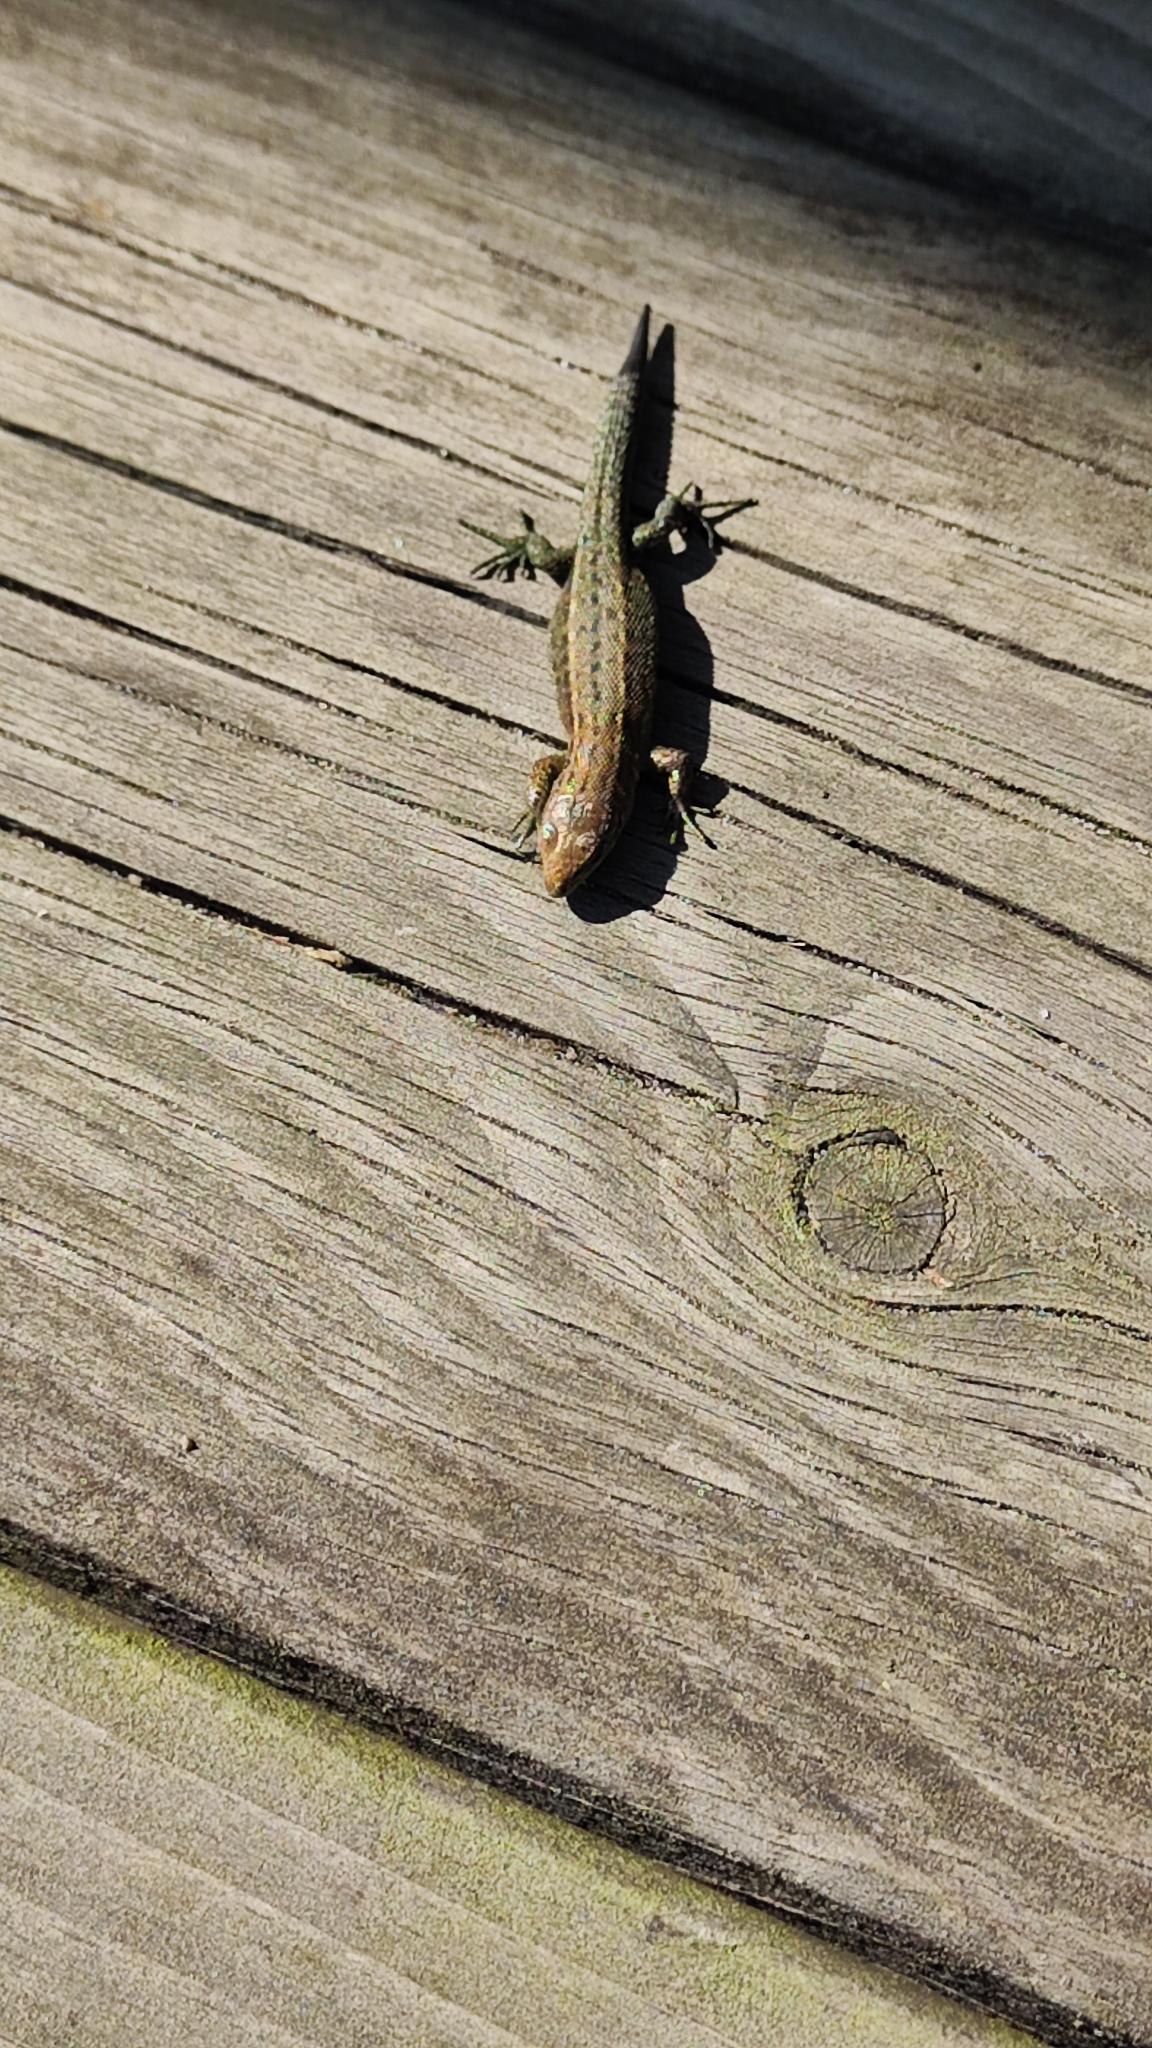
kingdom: Animalia
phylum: Chordata
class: Squamata
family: Lacertidae
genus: Zootoca
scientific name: Zootoca vivipara
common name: Skovfirben
